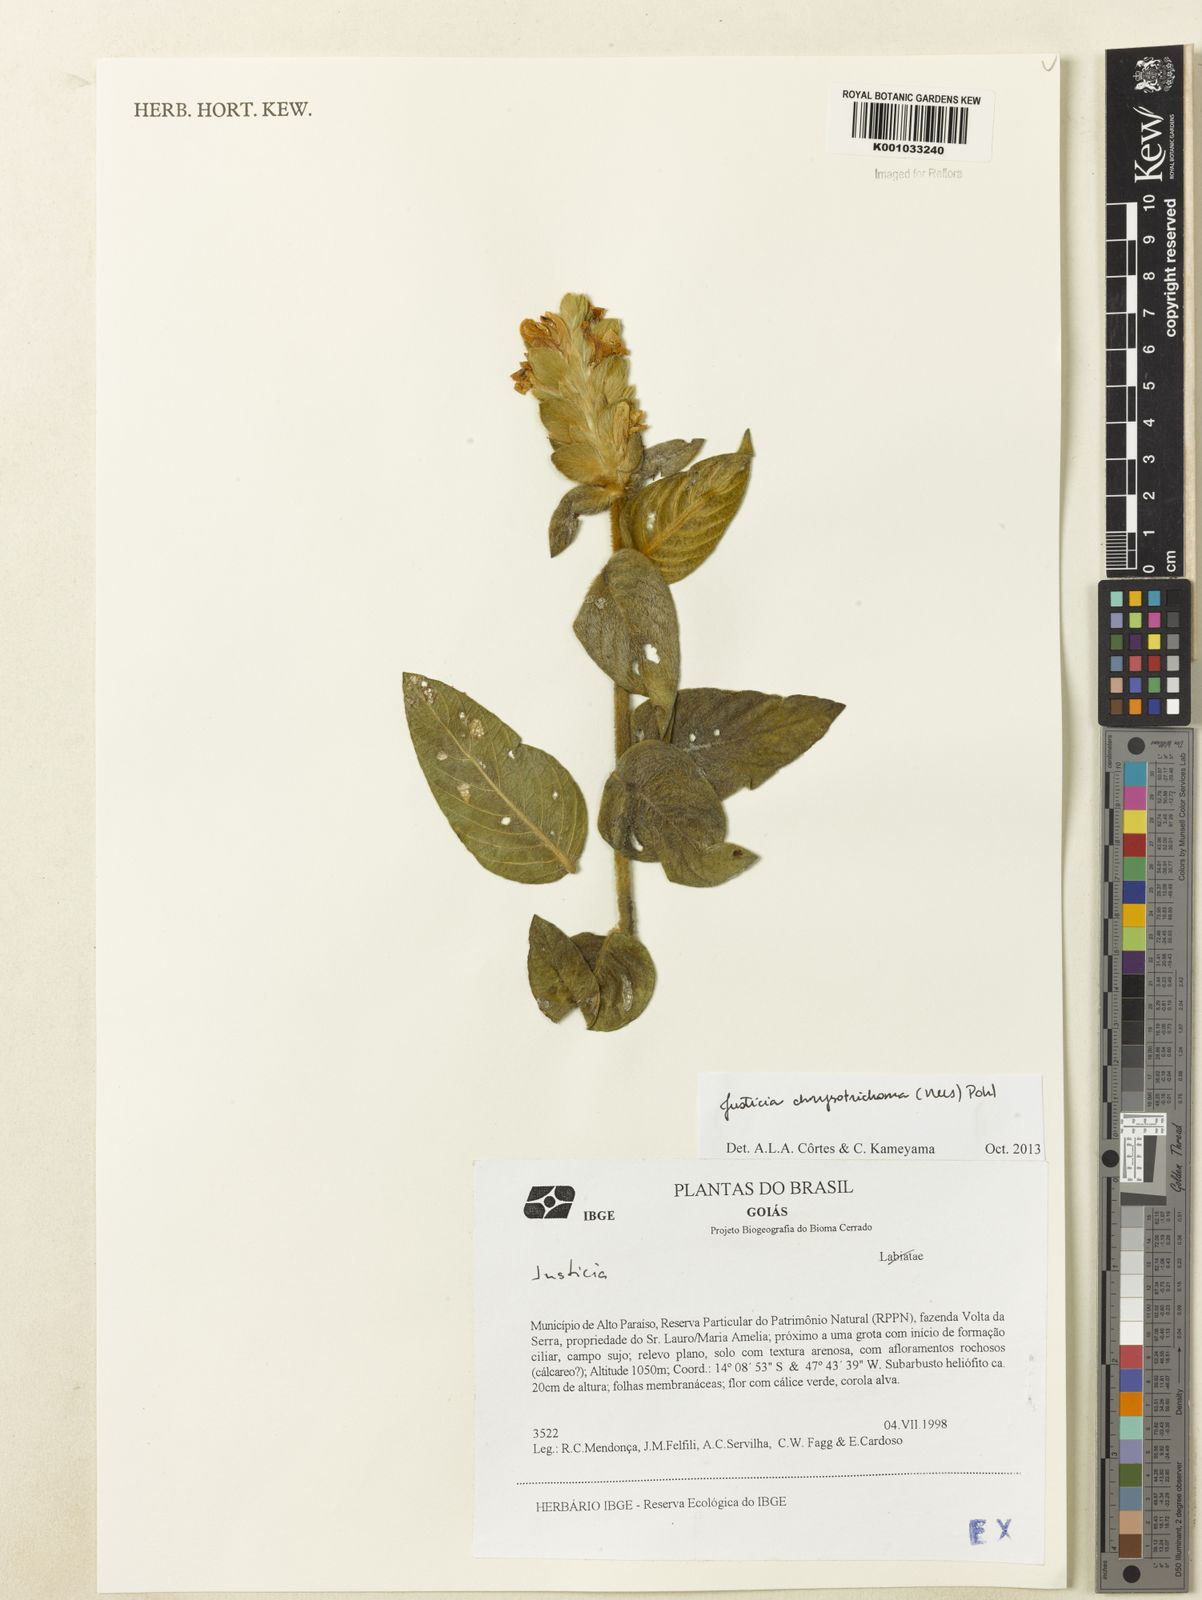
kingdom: Plantae
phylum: Tracheophyta
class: Magnoliopsida
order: Lamiales
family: Acanthaceae
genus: Justicia
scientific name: Justicia chrysotrichoma
